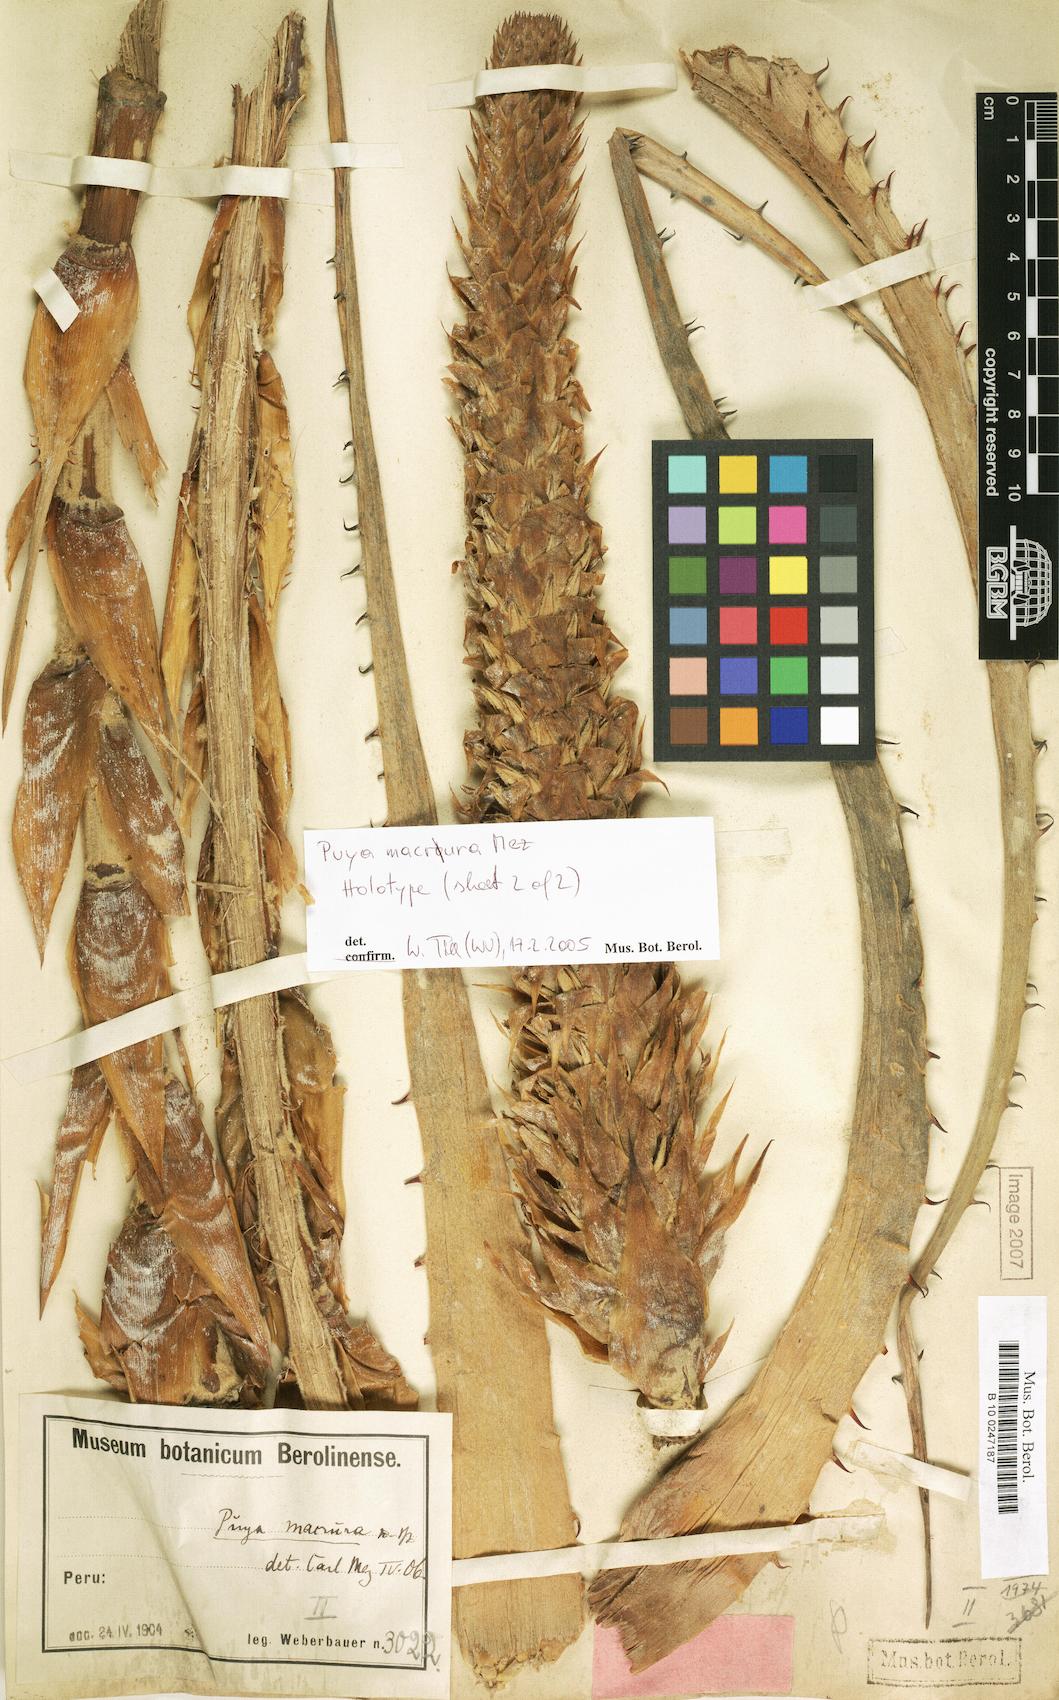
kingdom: Plantae
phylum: Tracheophyta
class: Liliopsida
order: Poales
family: Bromeliaceae
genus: Puya
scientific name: Puya macrura
